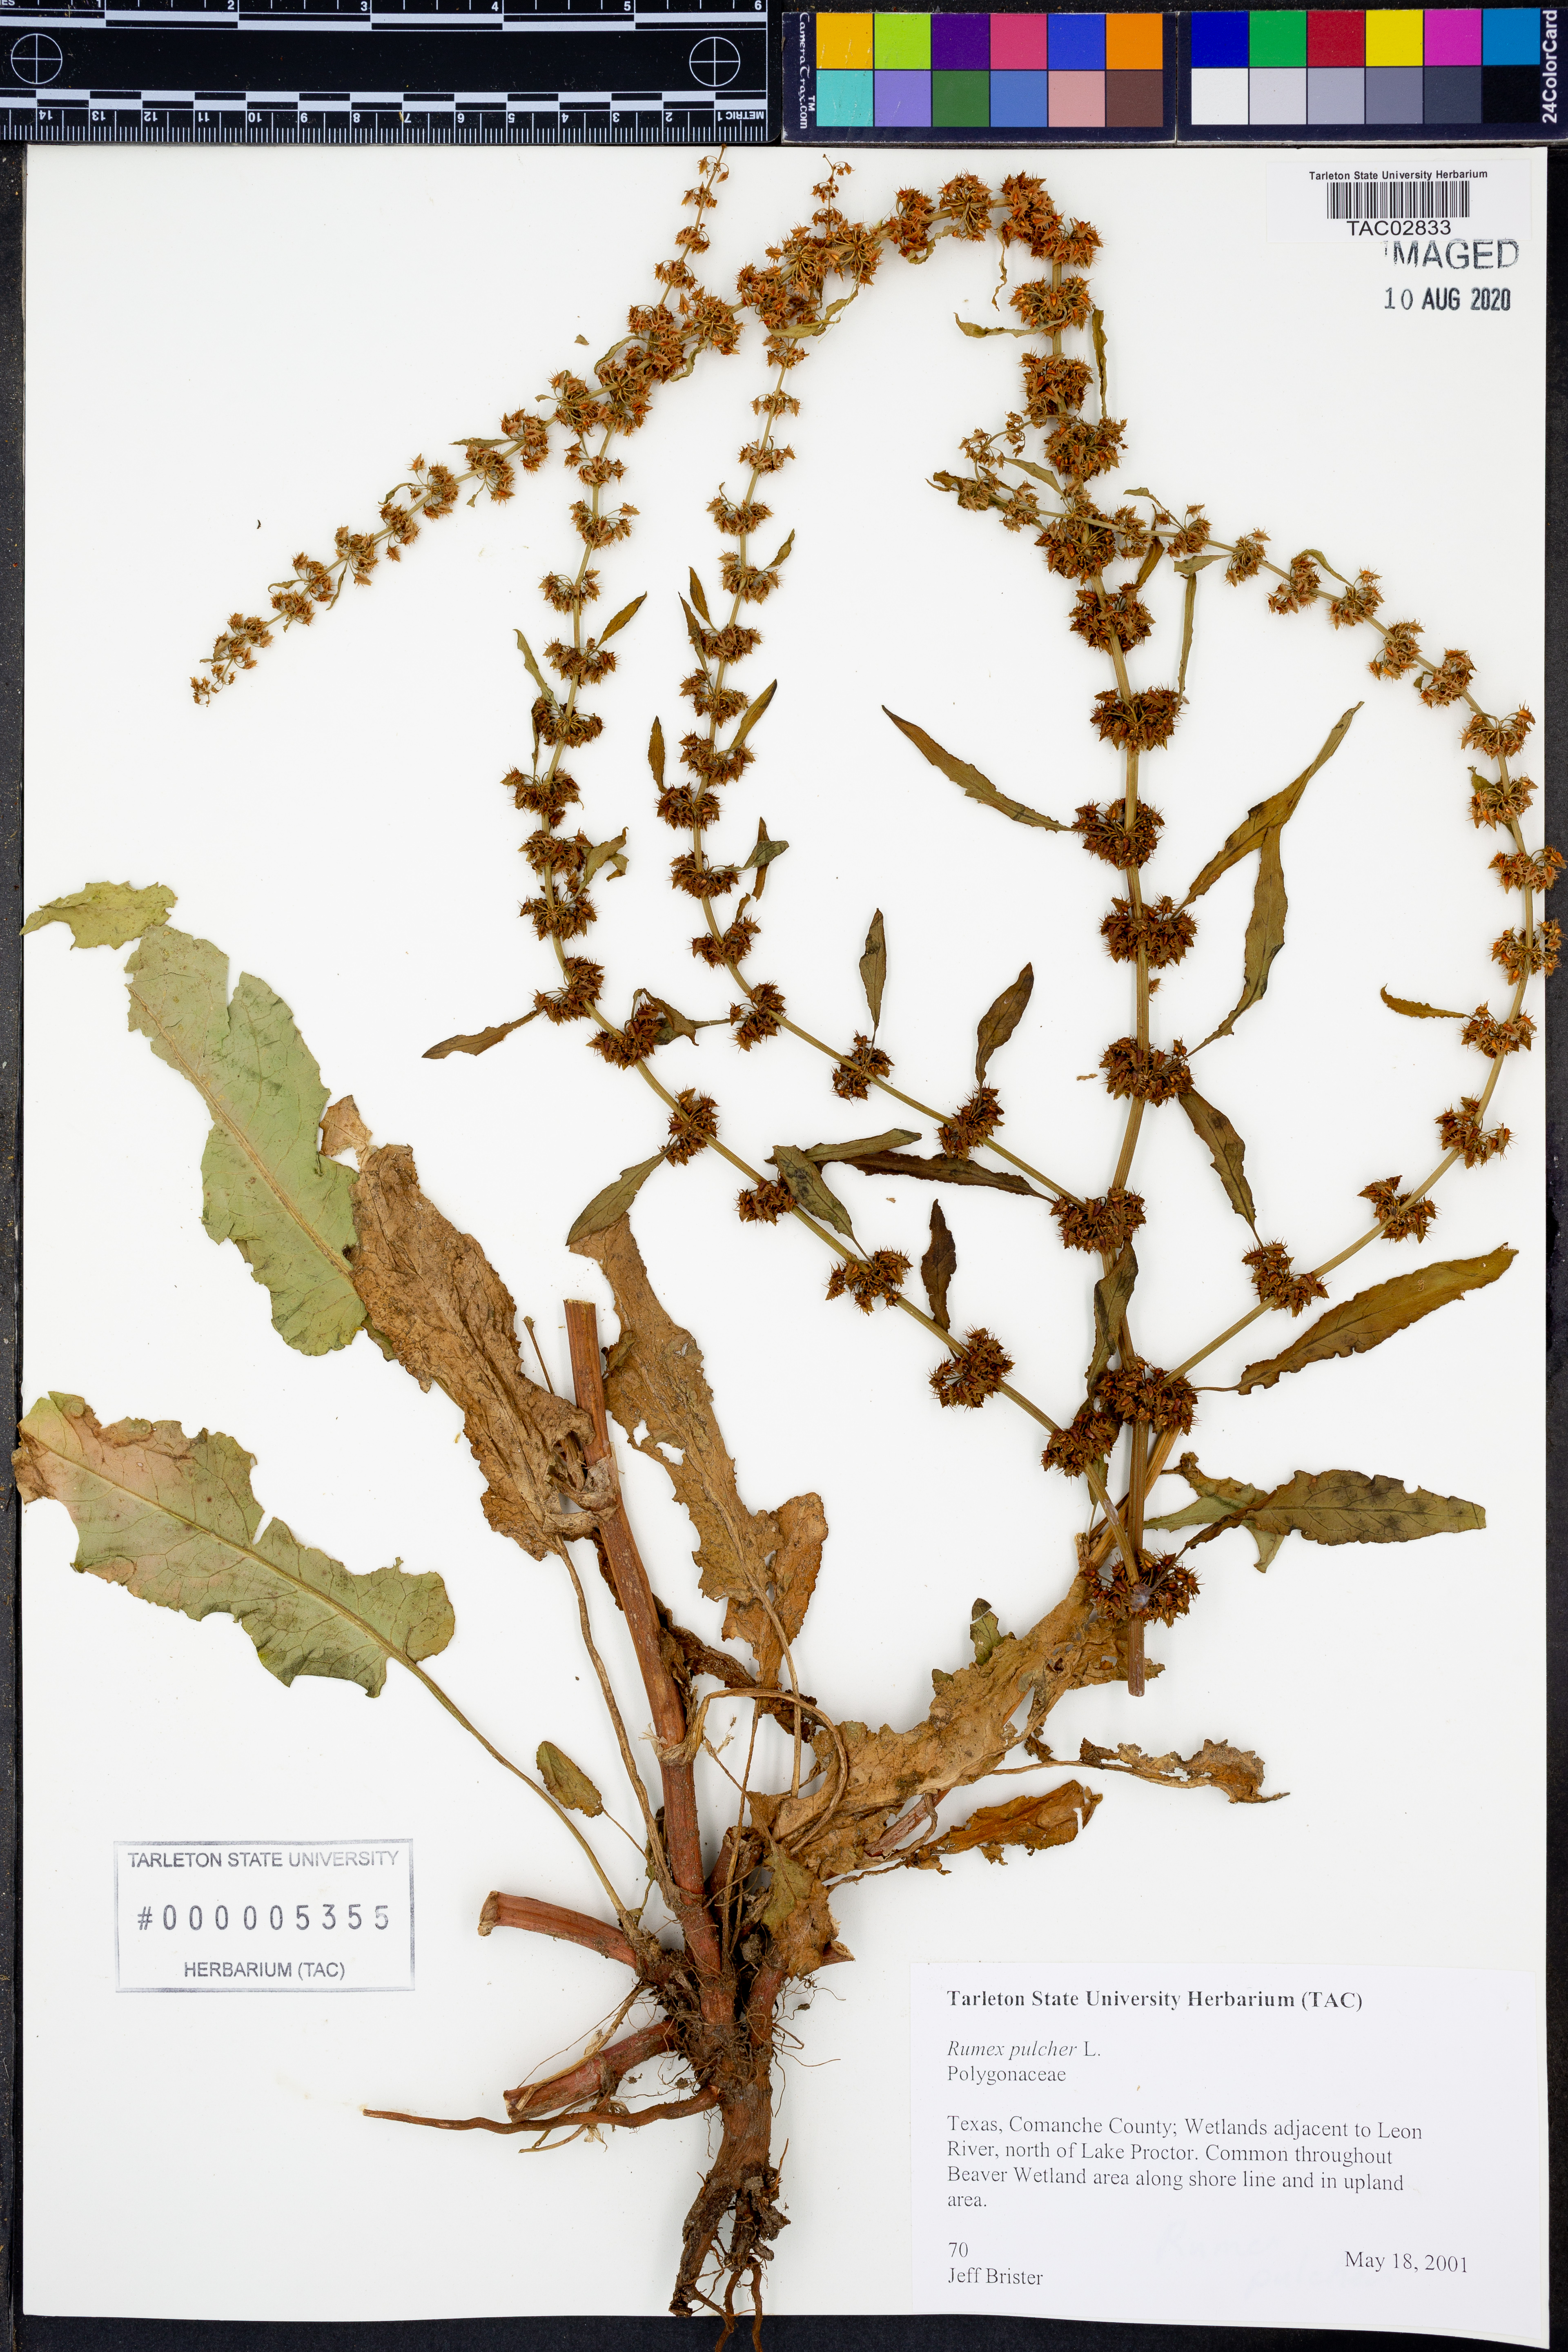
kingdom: Plantae
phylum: Tracheophyta
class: Magnoliopsida
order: Caryophyllales
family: Polygonaceae
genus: Rumex
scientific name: Rumex pulcher
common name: Fiddle dock
